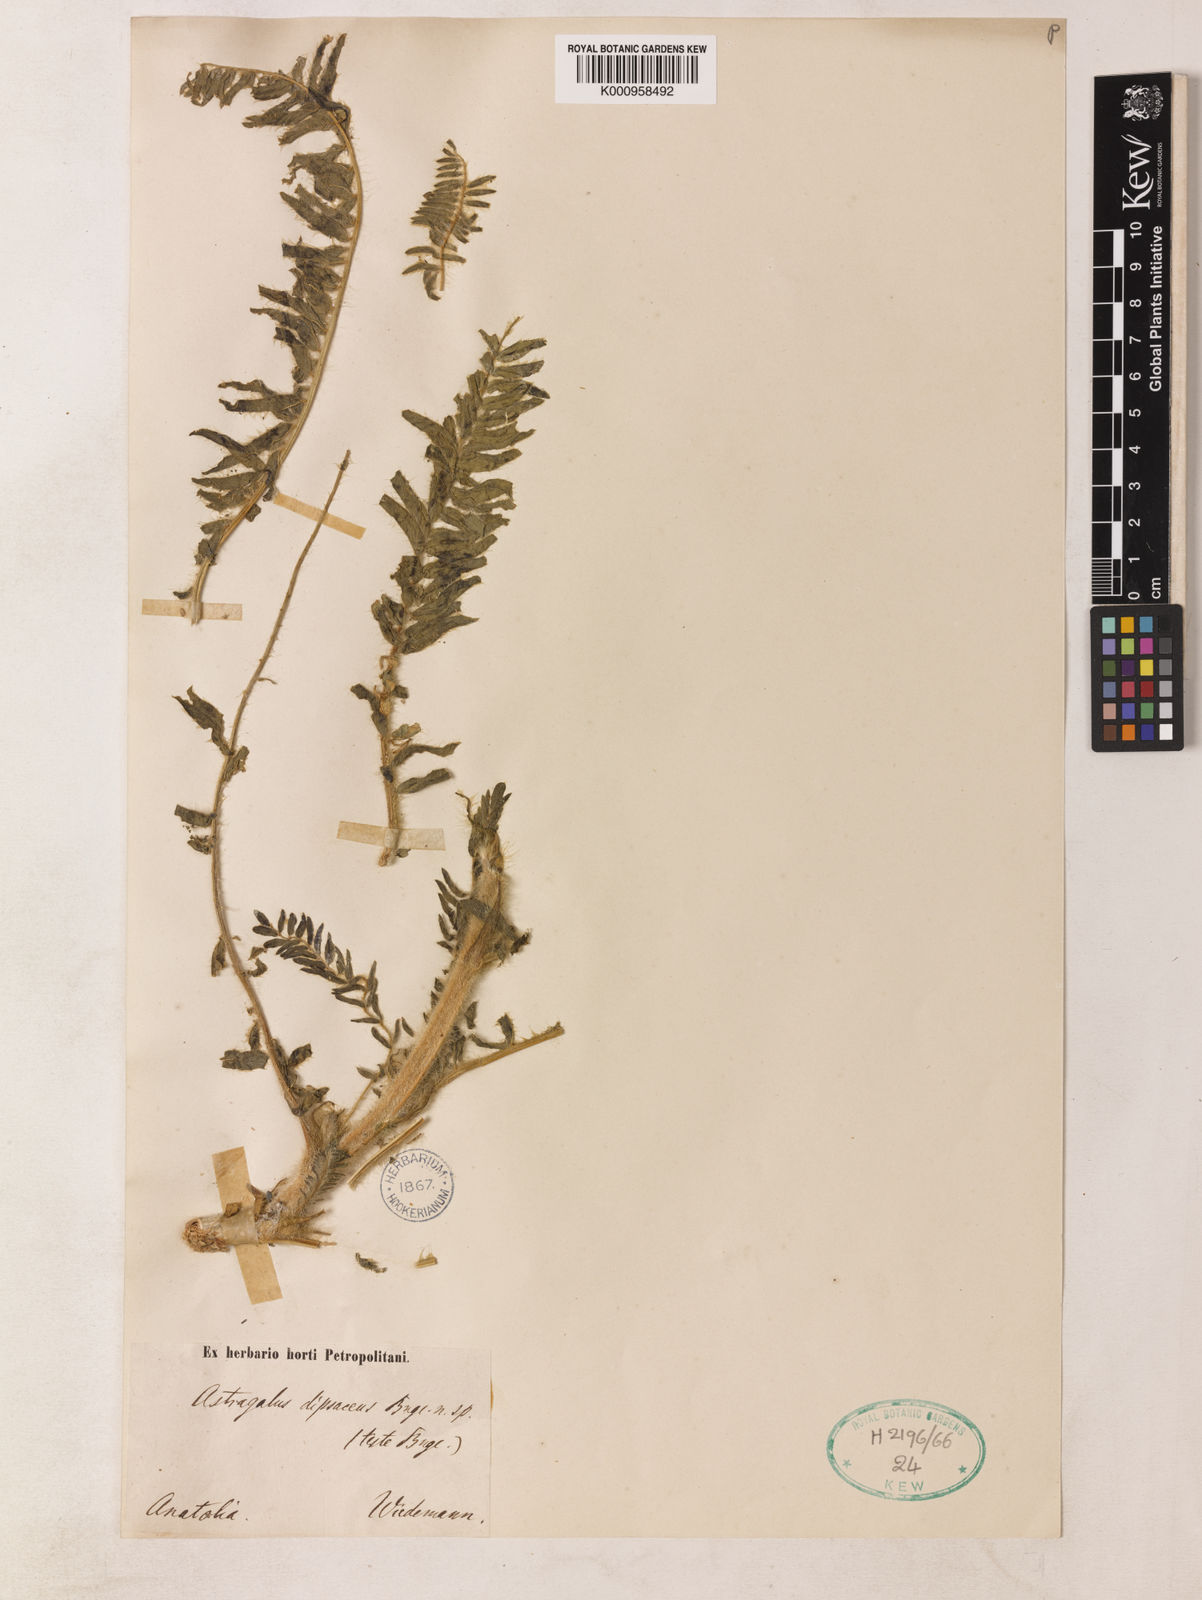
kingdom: Plantae
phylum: Tracheophyta
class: Magnoliopsida
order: Fabales
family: Fabaceae
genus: Astragalus
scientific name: Astragalus dipsaceus
